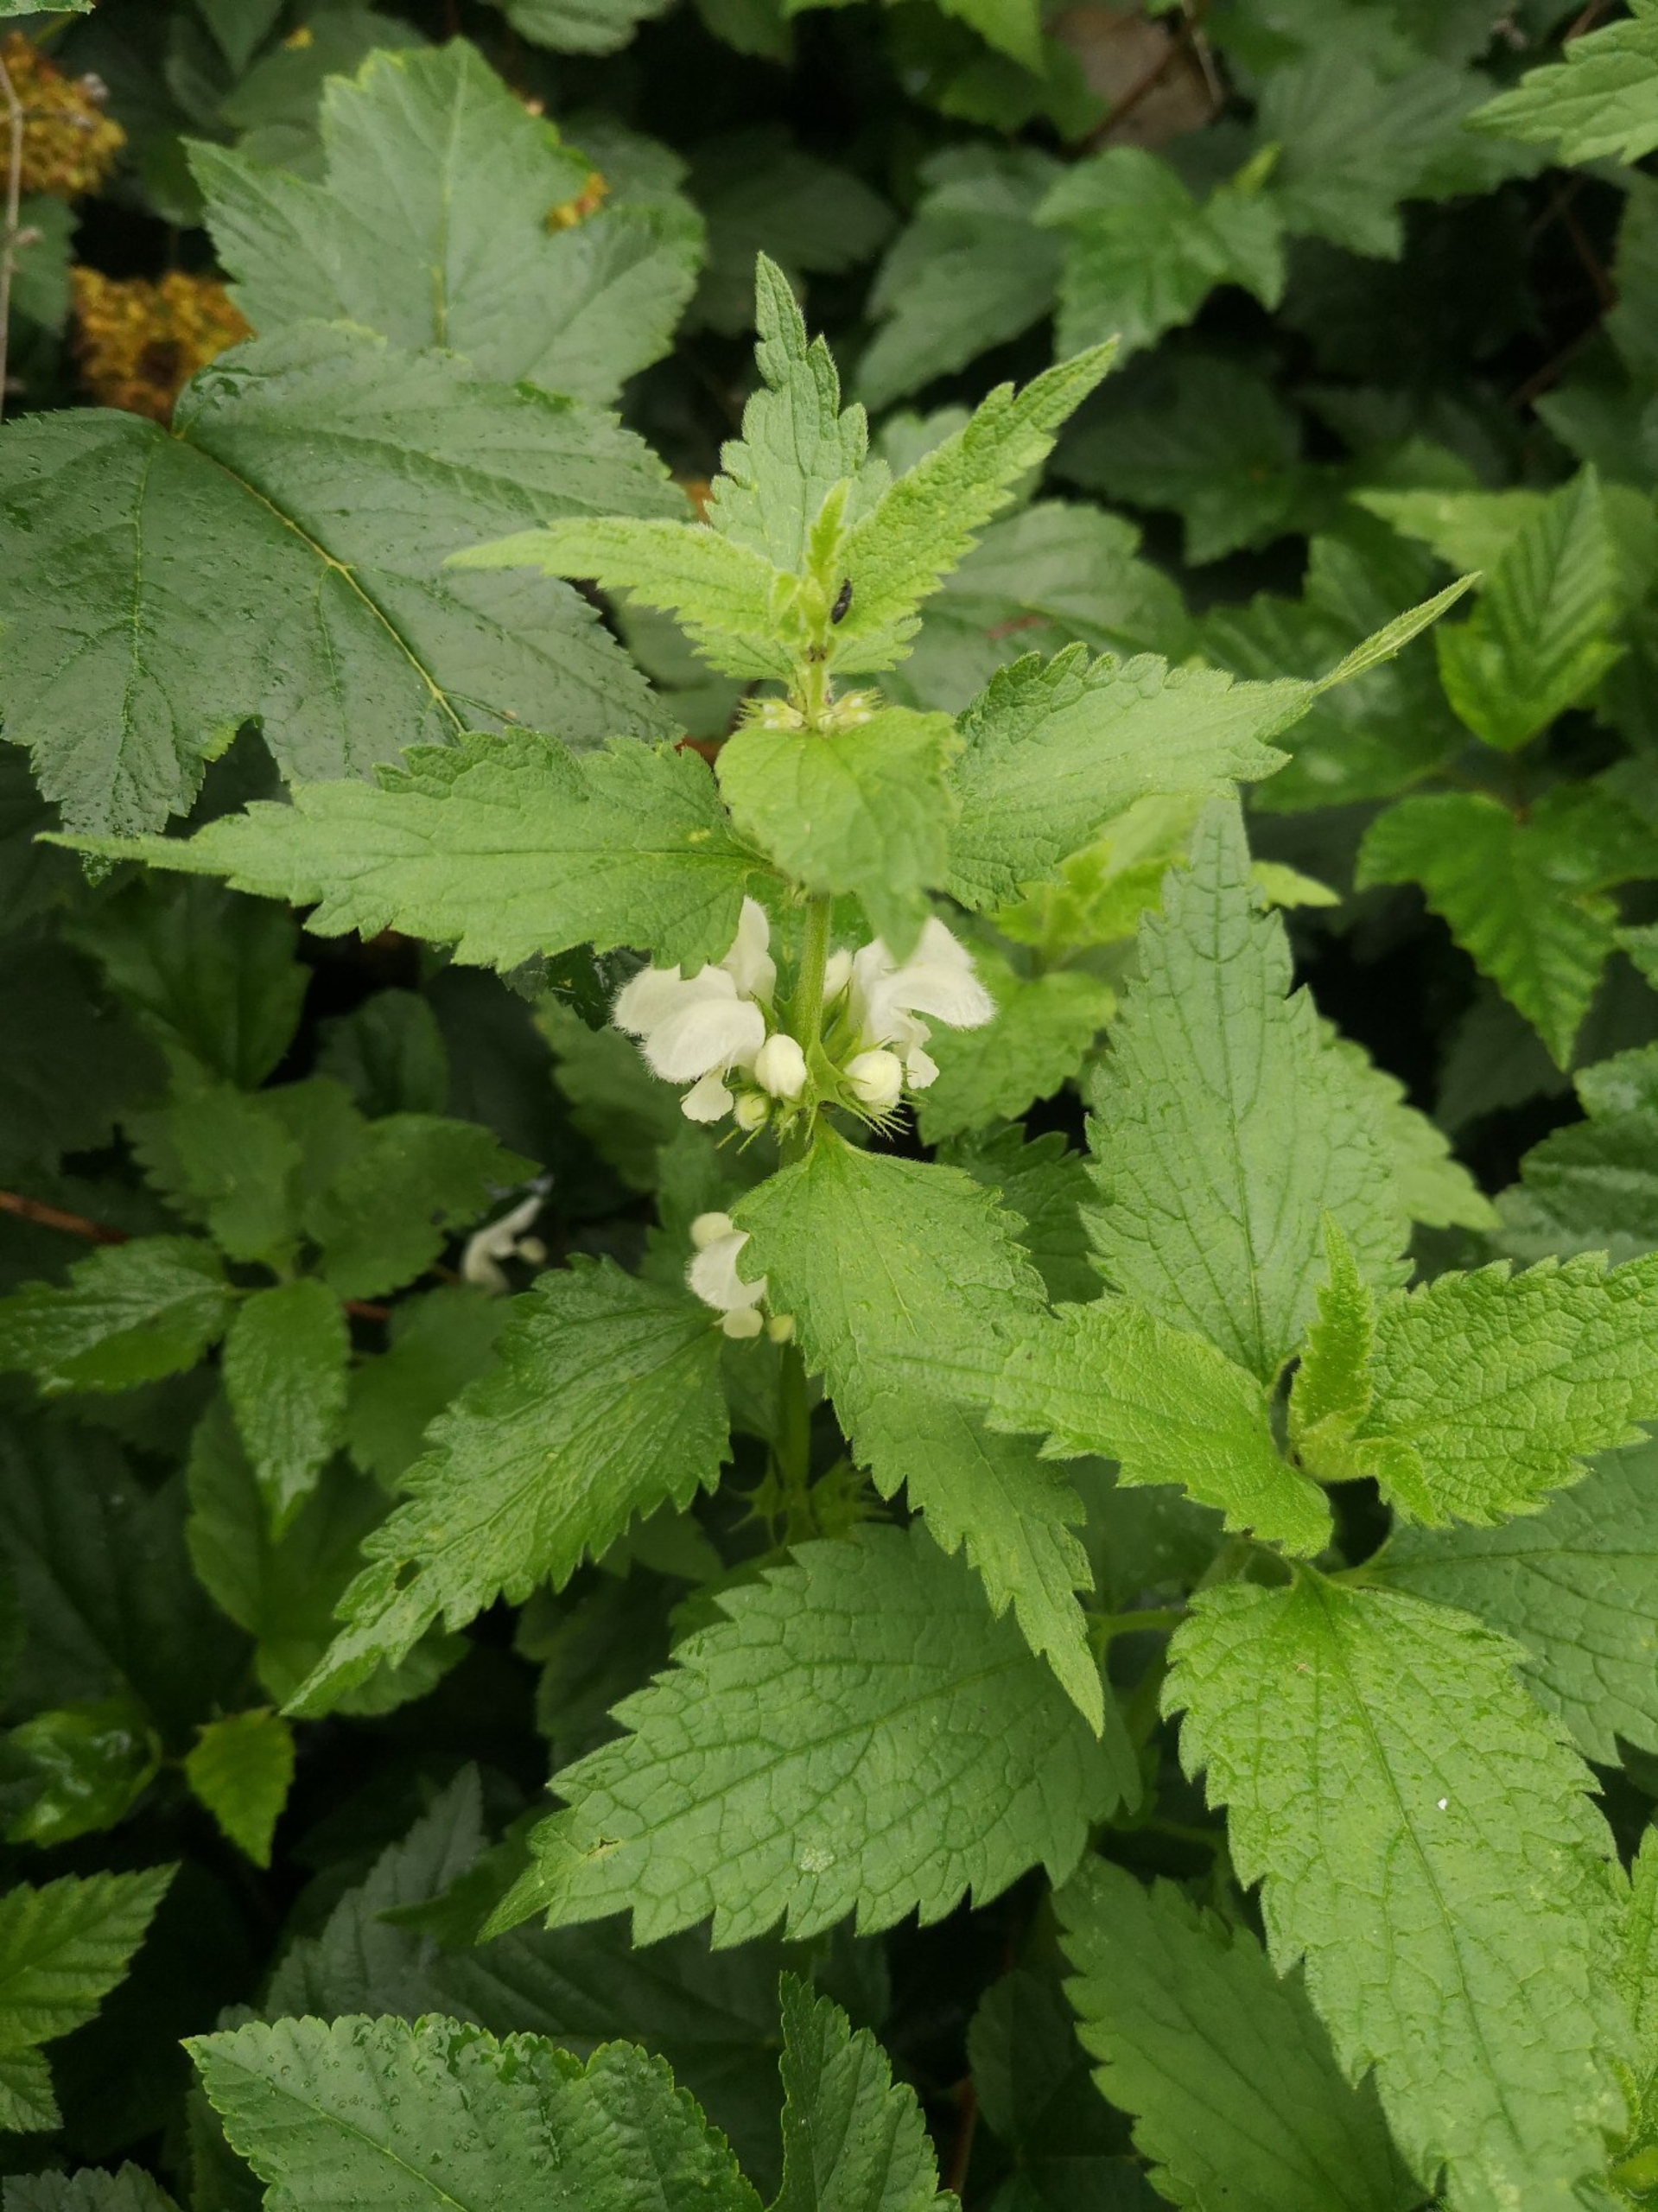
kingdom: Plantae
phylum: Tracheophyta
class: Magnoliopsida
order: Lamiales
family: Lamiaceae
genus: Lamium
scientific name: Lamium album
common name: Døvnælde
